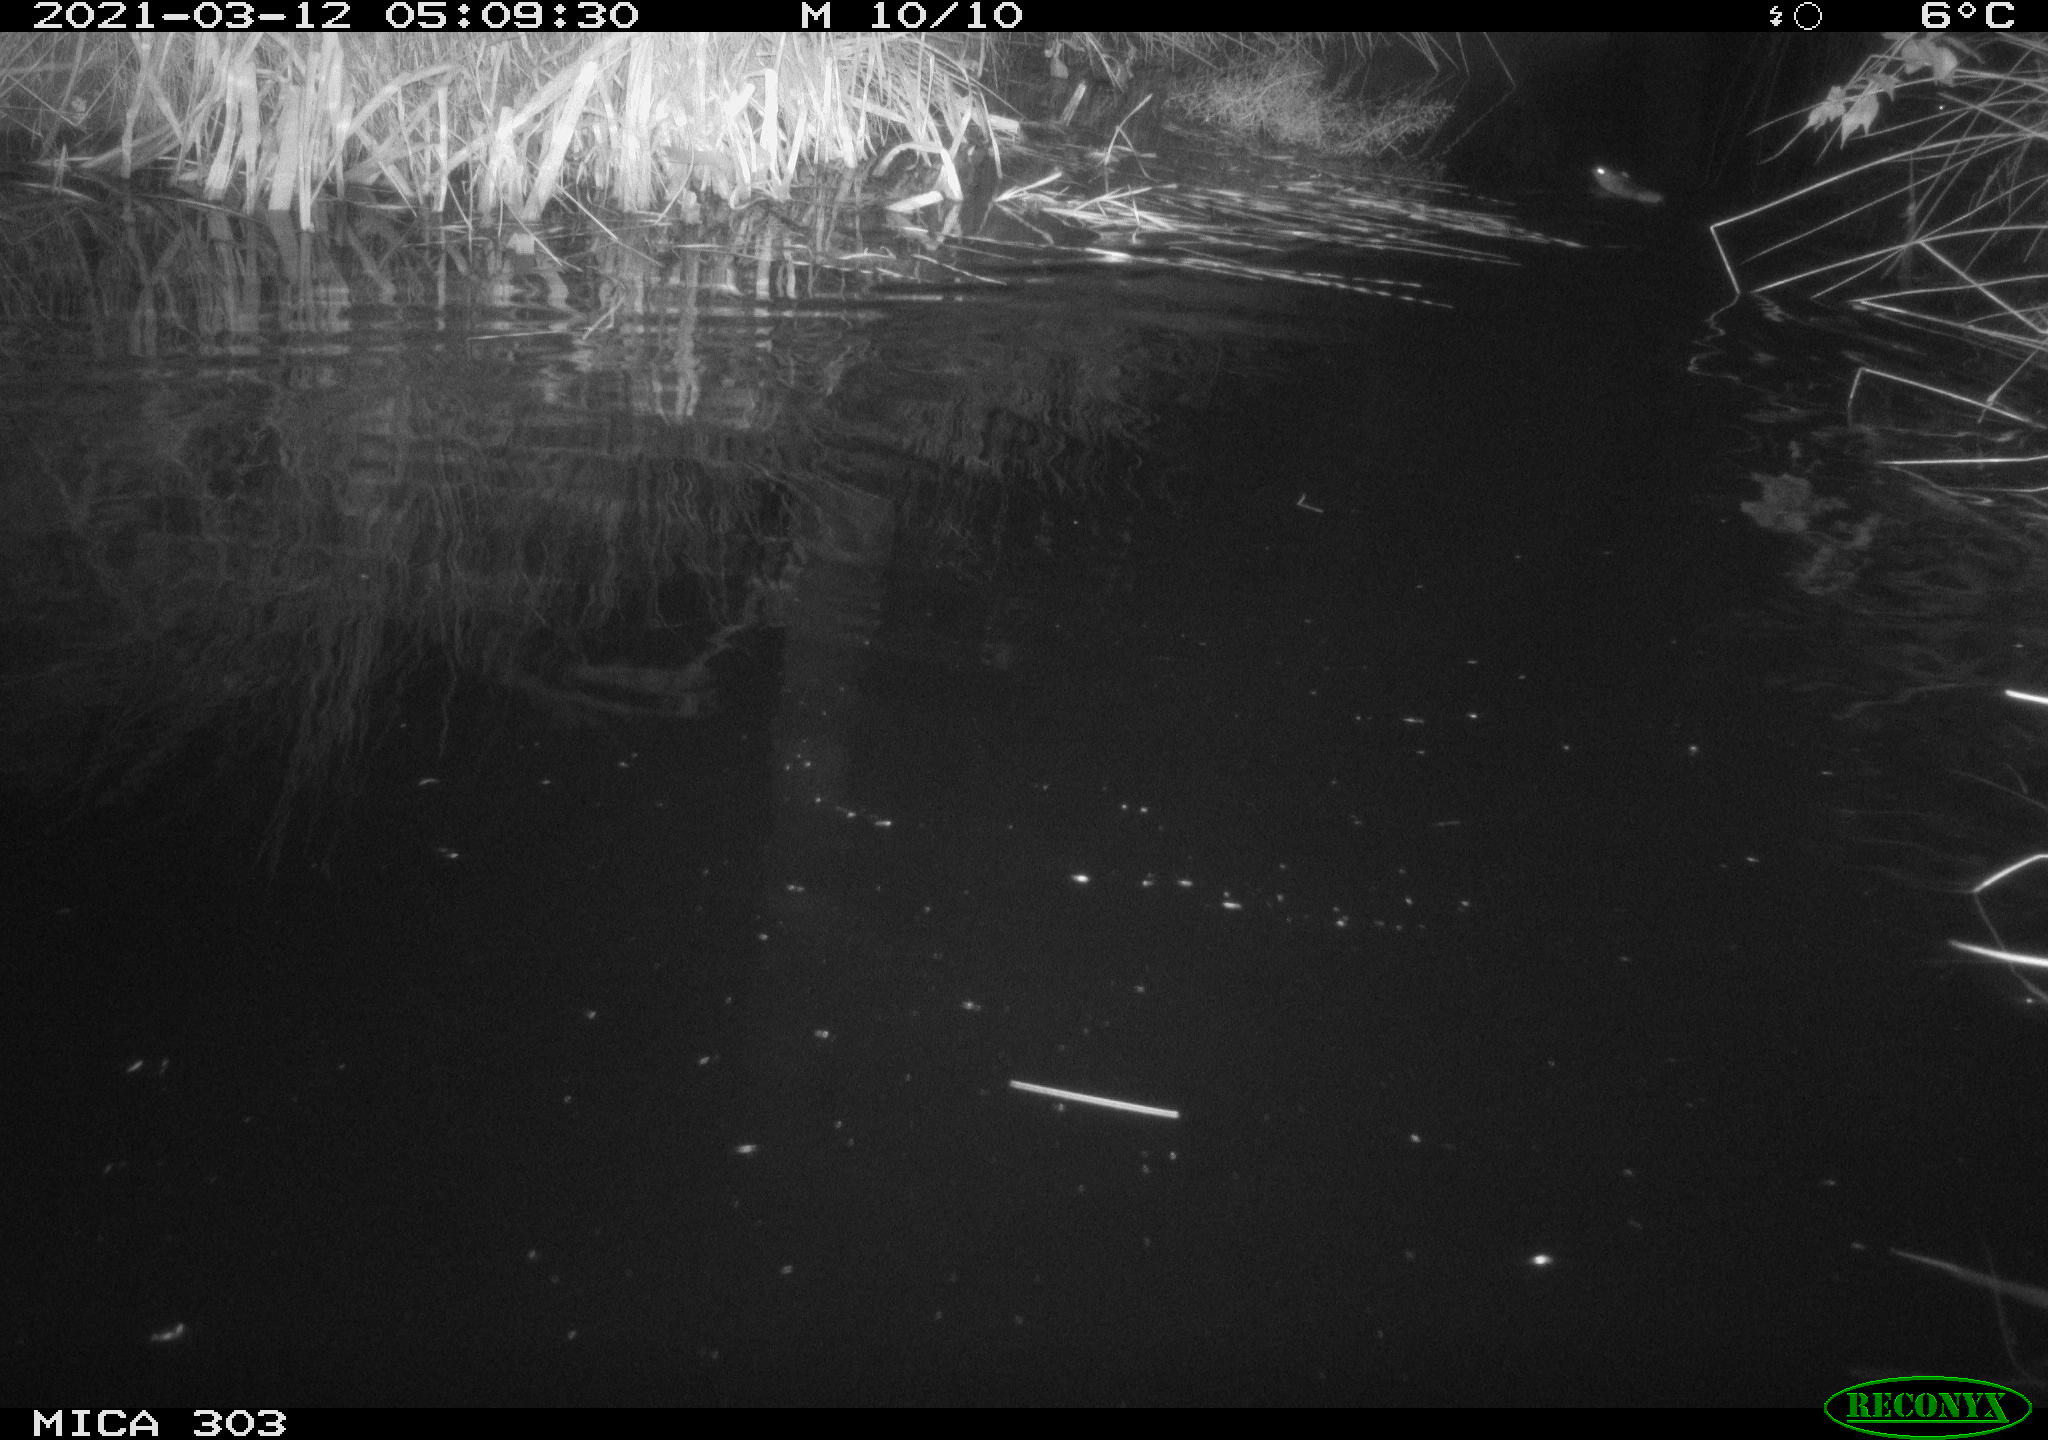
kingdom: Animalia
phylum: Chordata
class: Mammalia
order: Rodentia
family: Muridae
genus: Rattus
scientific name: Rattus norvegicus
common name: Brown rat
